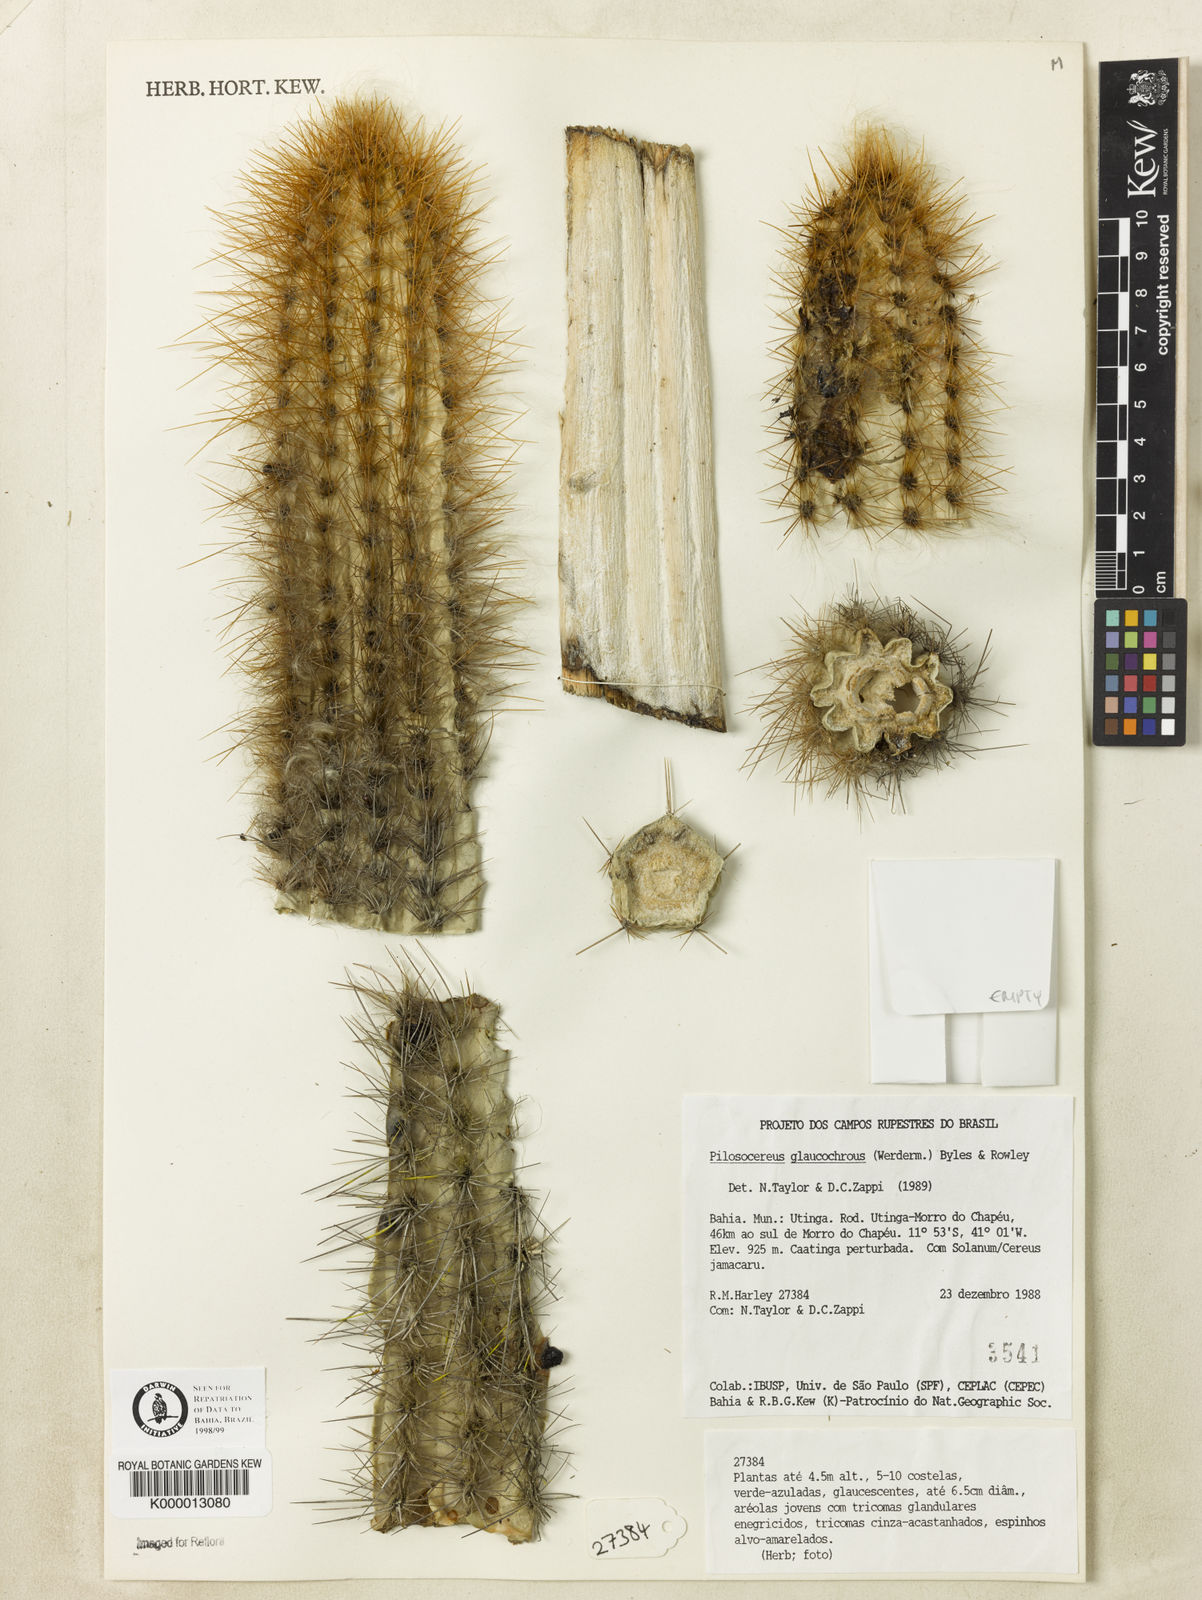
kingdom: Plantae
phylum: Tracheophyta
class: Magnoliopsida
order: Caryophyllales
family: Cactaceae
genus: Pilosocereus
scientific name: Pilosocereus glaucochrous
